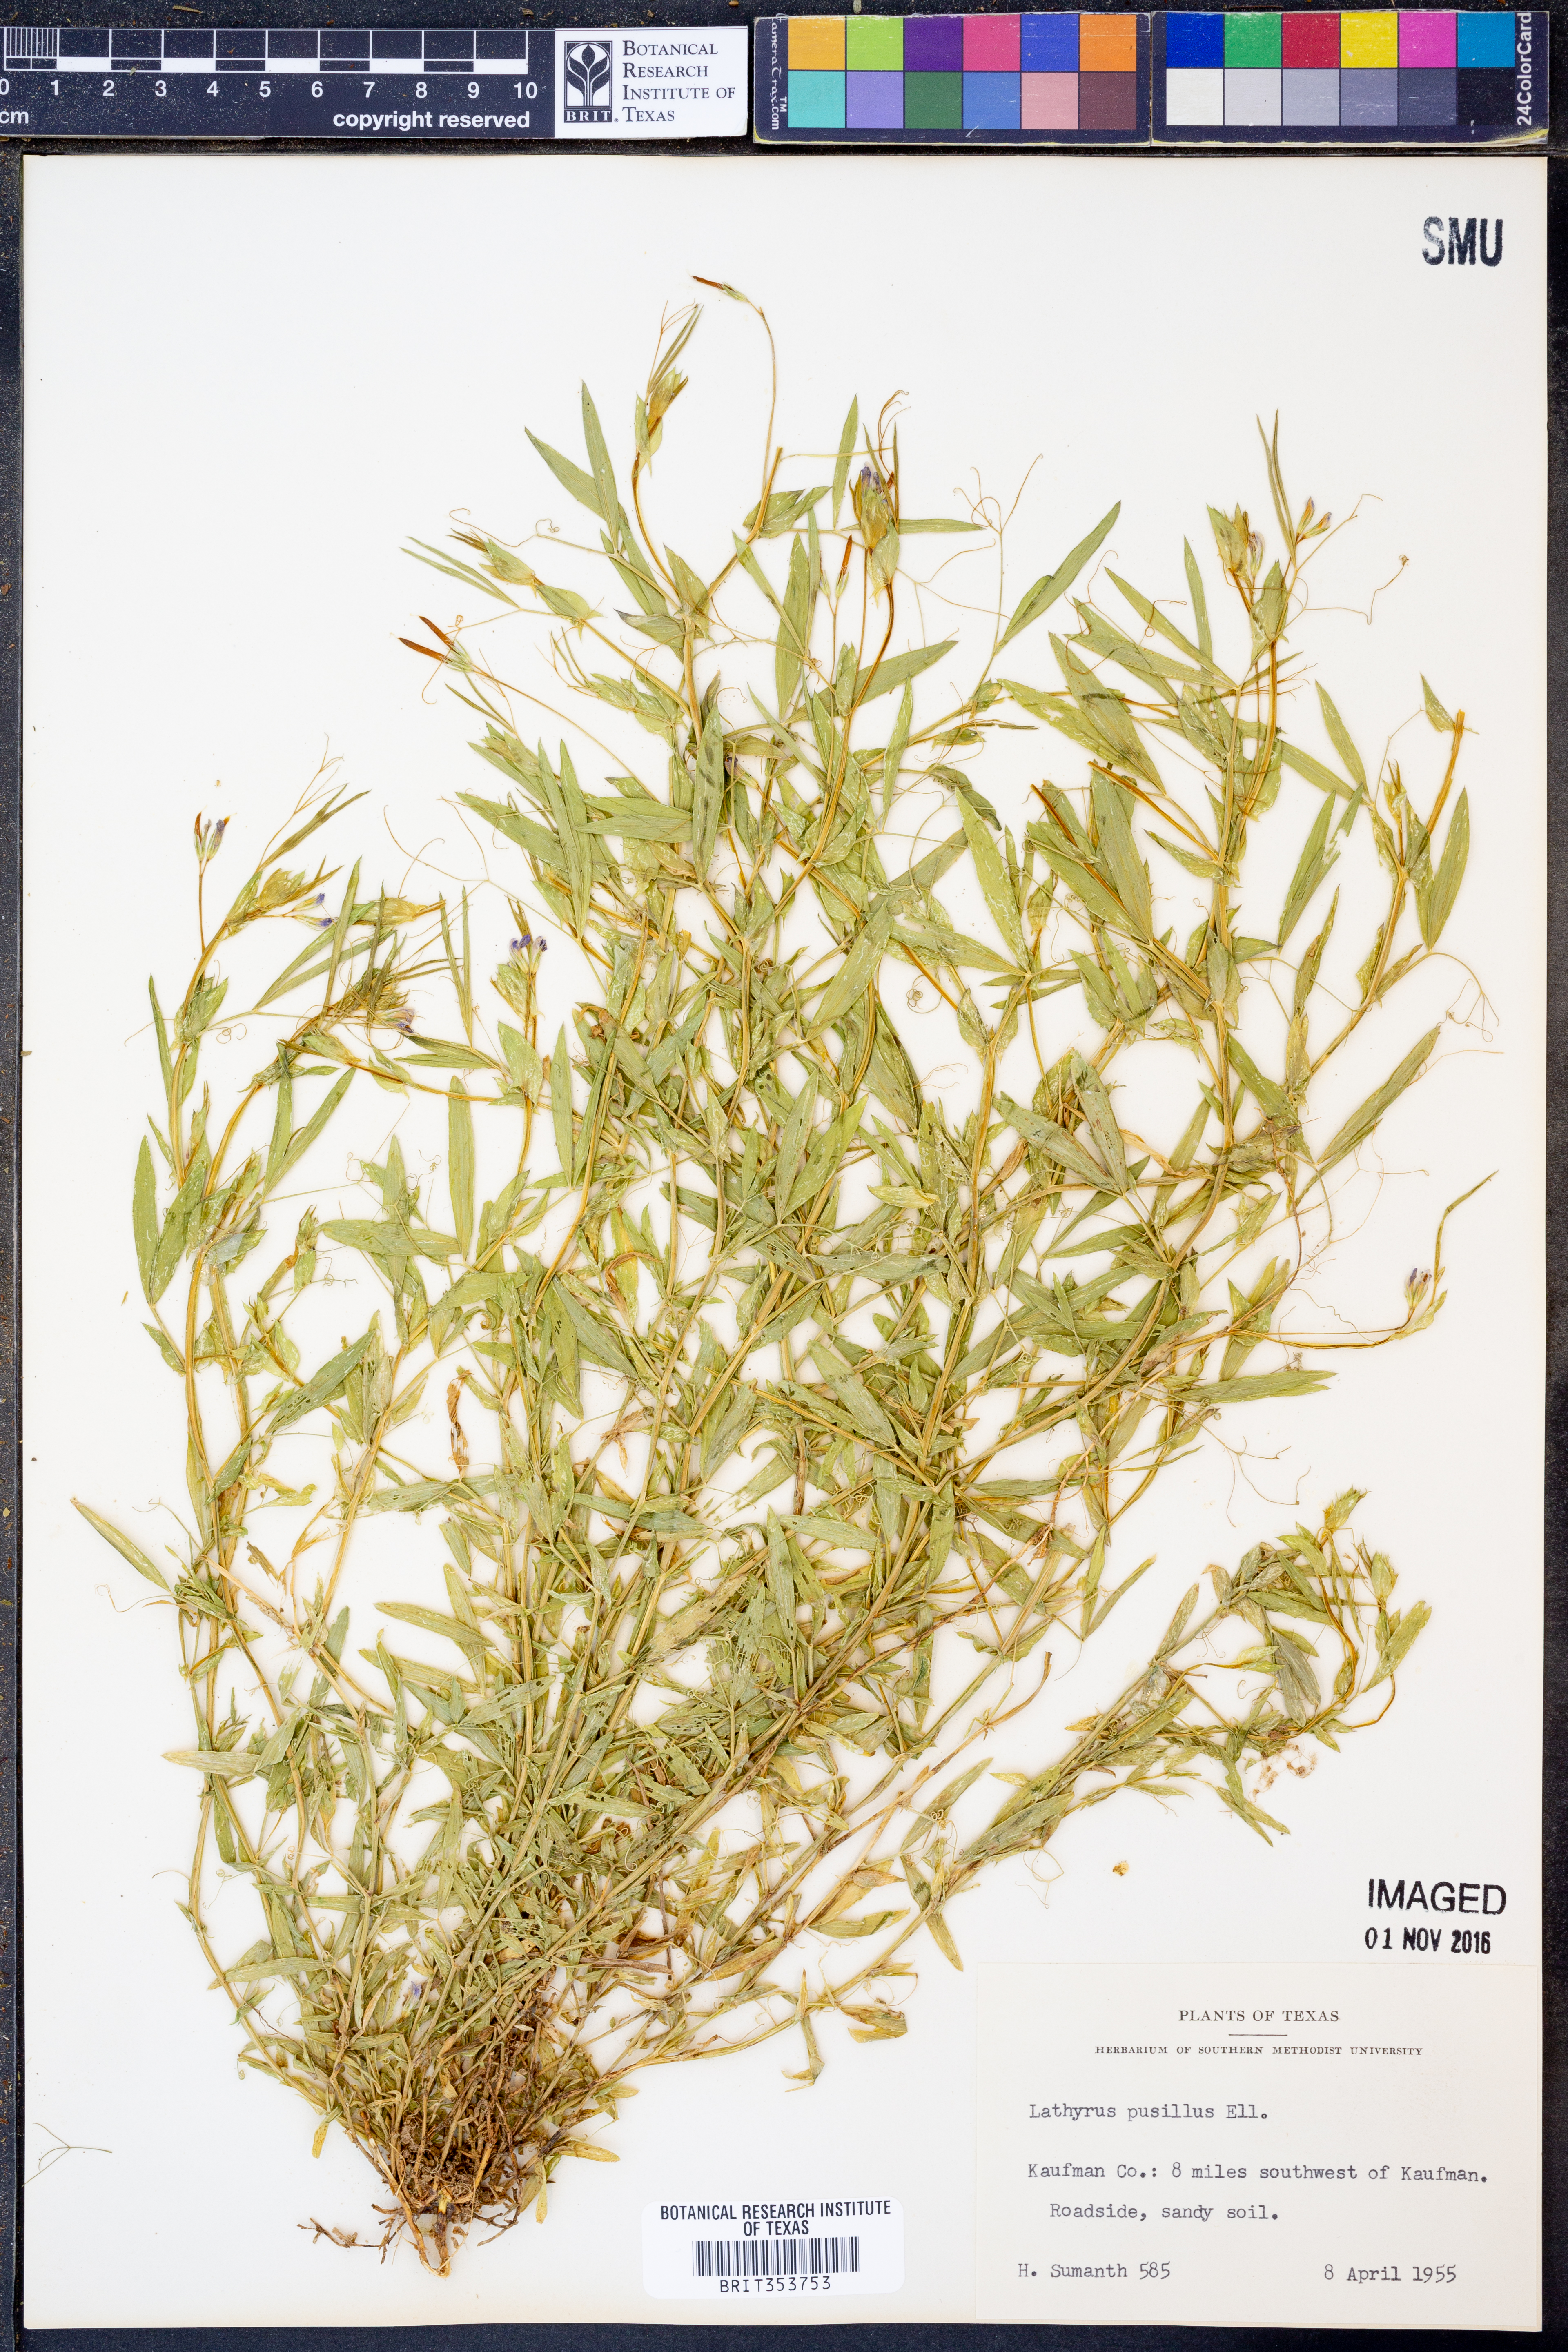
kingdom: Plantae
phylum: Tracheophyta
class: Magnoliopsida
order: Fabales
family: Fabaceae
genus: Lathyrus
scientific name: Lathyrus pusillus
